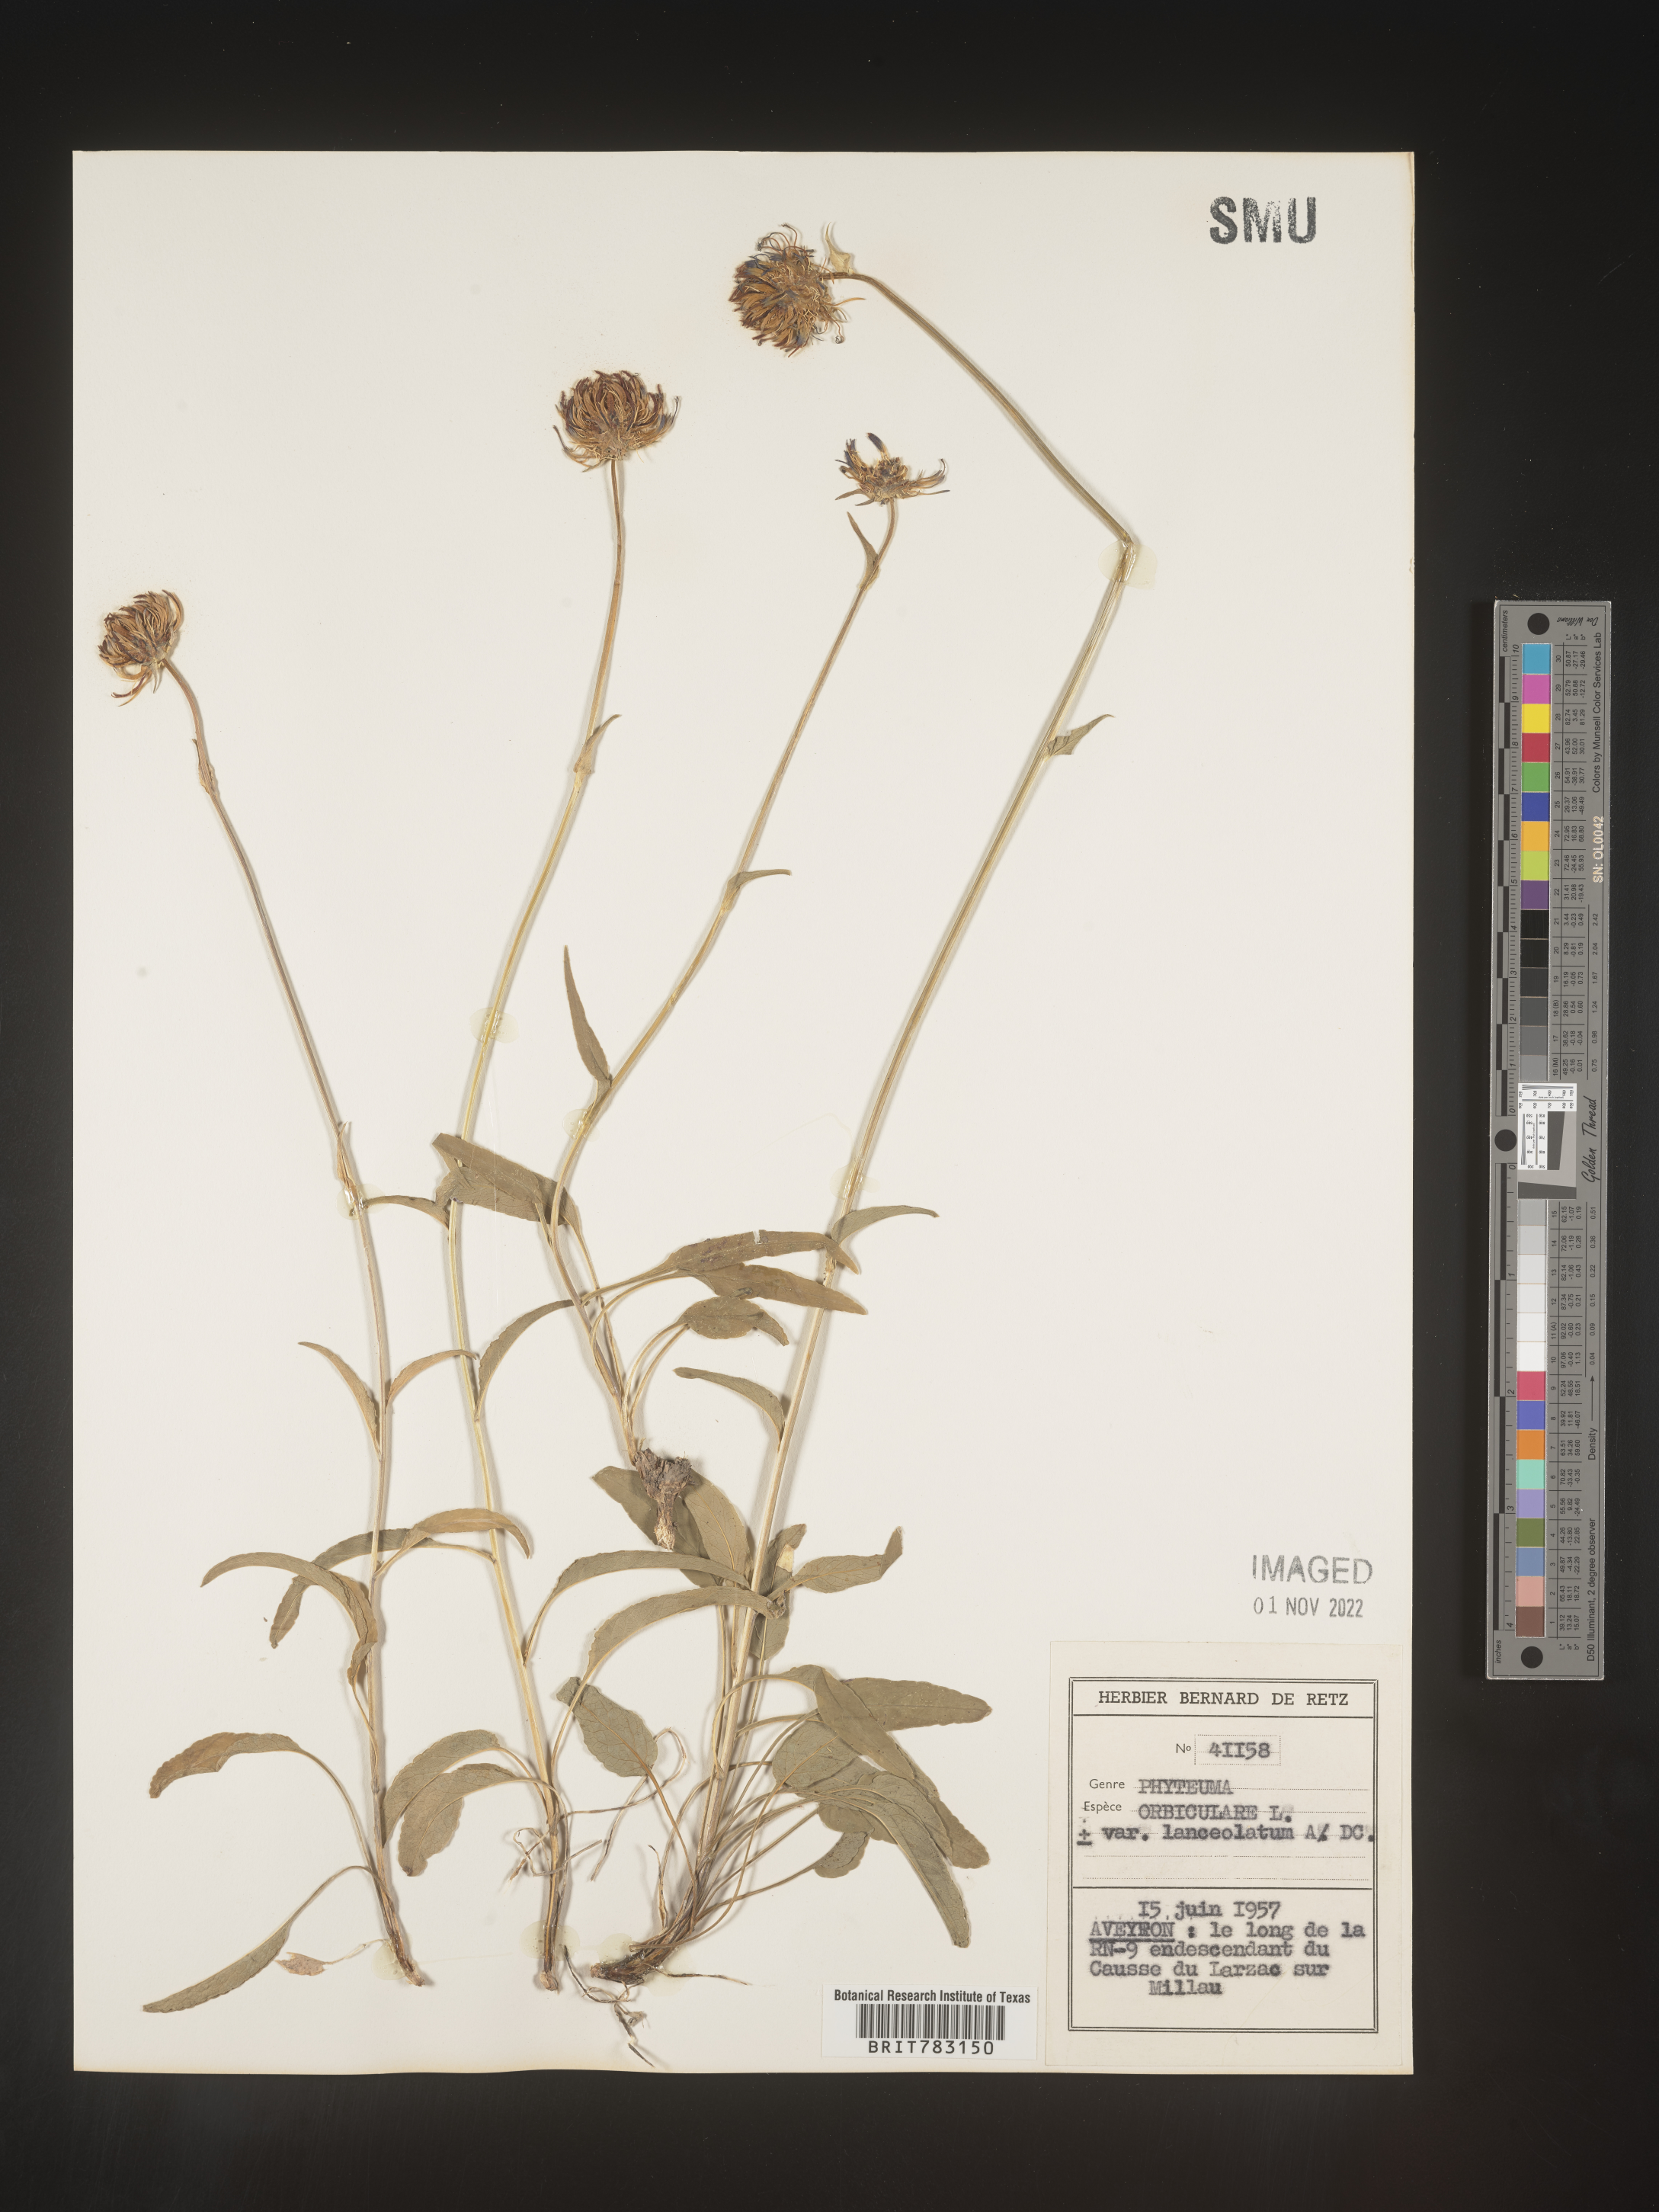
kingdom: Plantae
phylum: Tracheophyta
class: Magnoliopsida
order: Asterales
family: Campanulaceae
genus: Phyteuma
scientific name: Phyteuma
